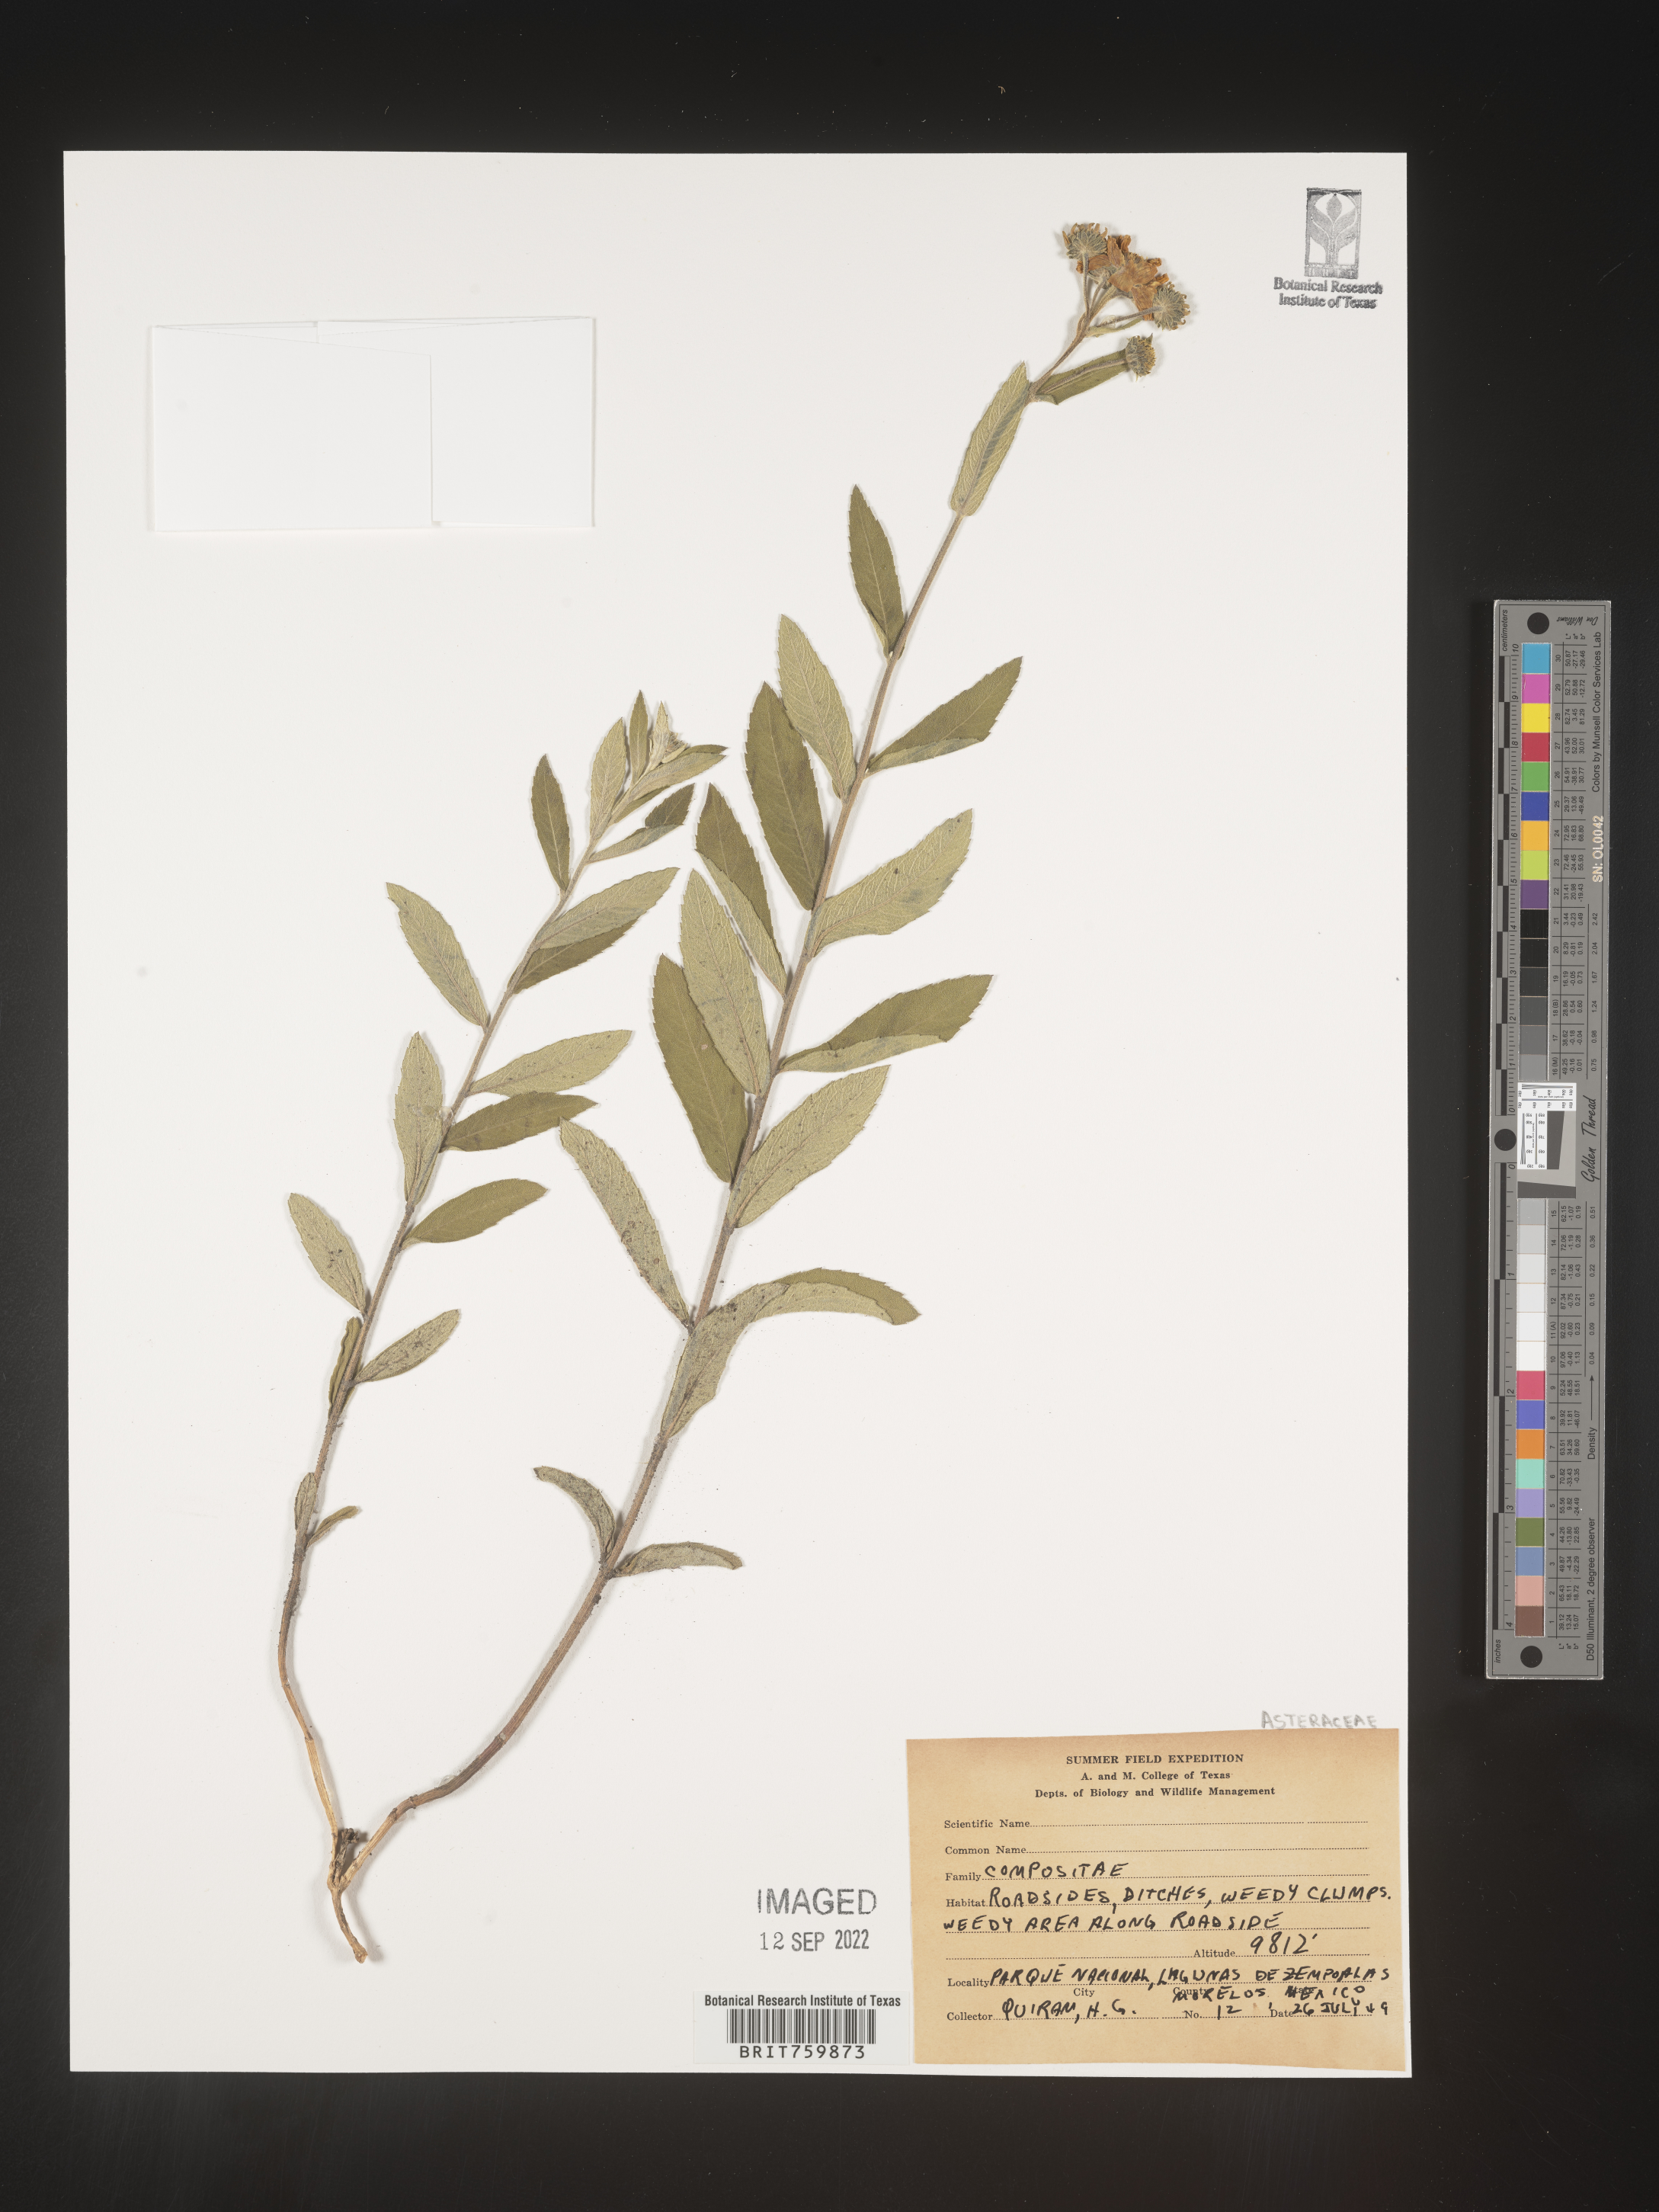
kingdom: Plantae
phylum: Tracheophyta
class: Magnoliopsida
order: Asterales
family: Asteraceae
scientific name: Asteraceae
